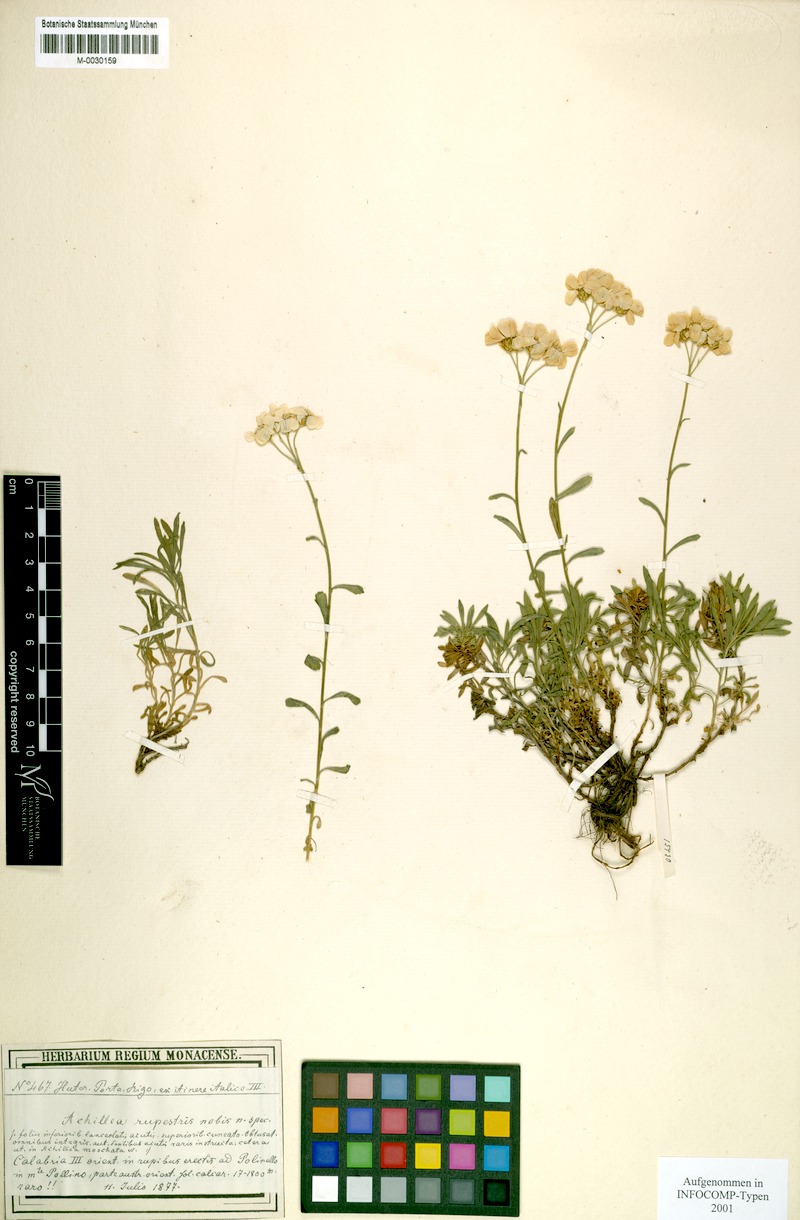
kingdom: Plantae
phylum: Tracheophyta
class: Magnoliopsida
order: Asterales
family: Asteraceae
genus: Achillea
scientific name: Achillea rupestris
